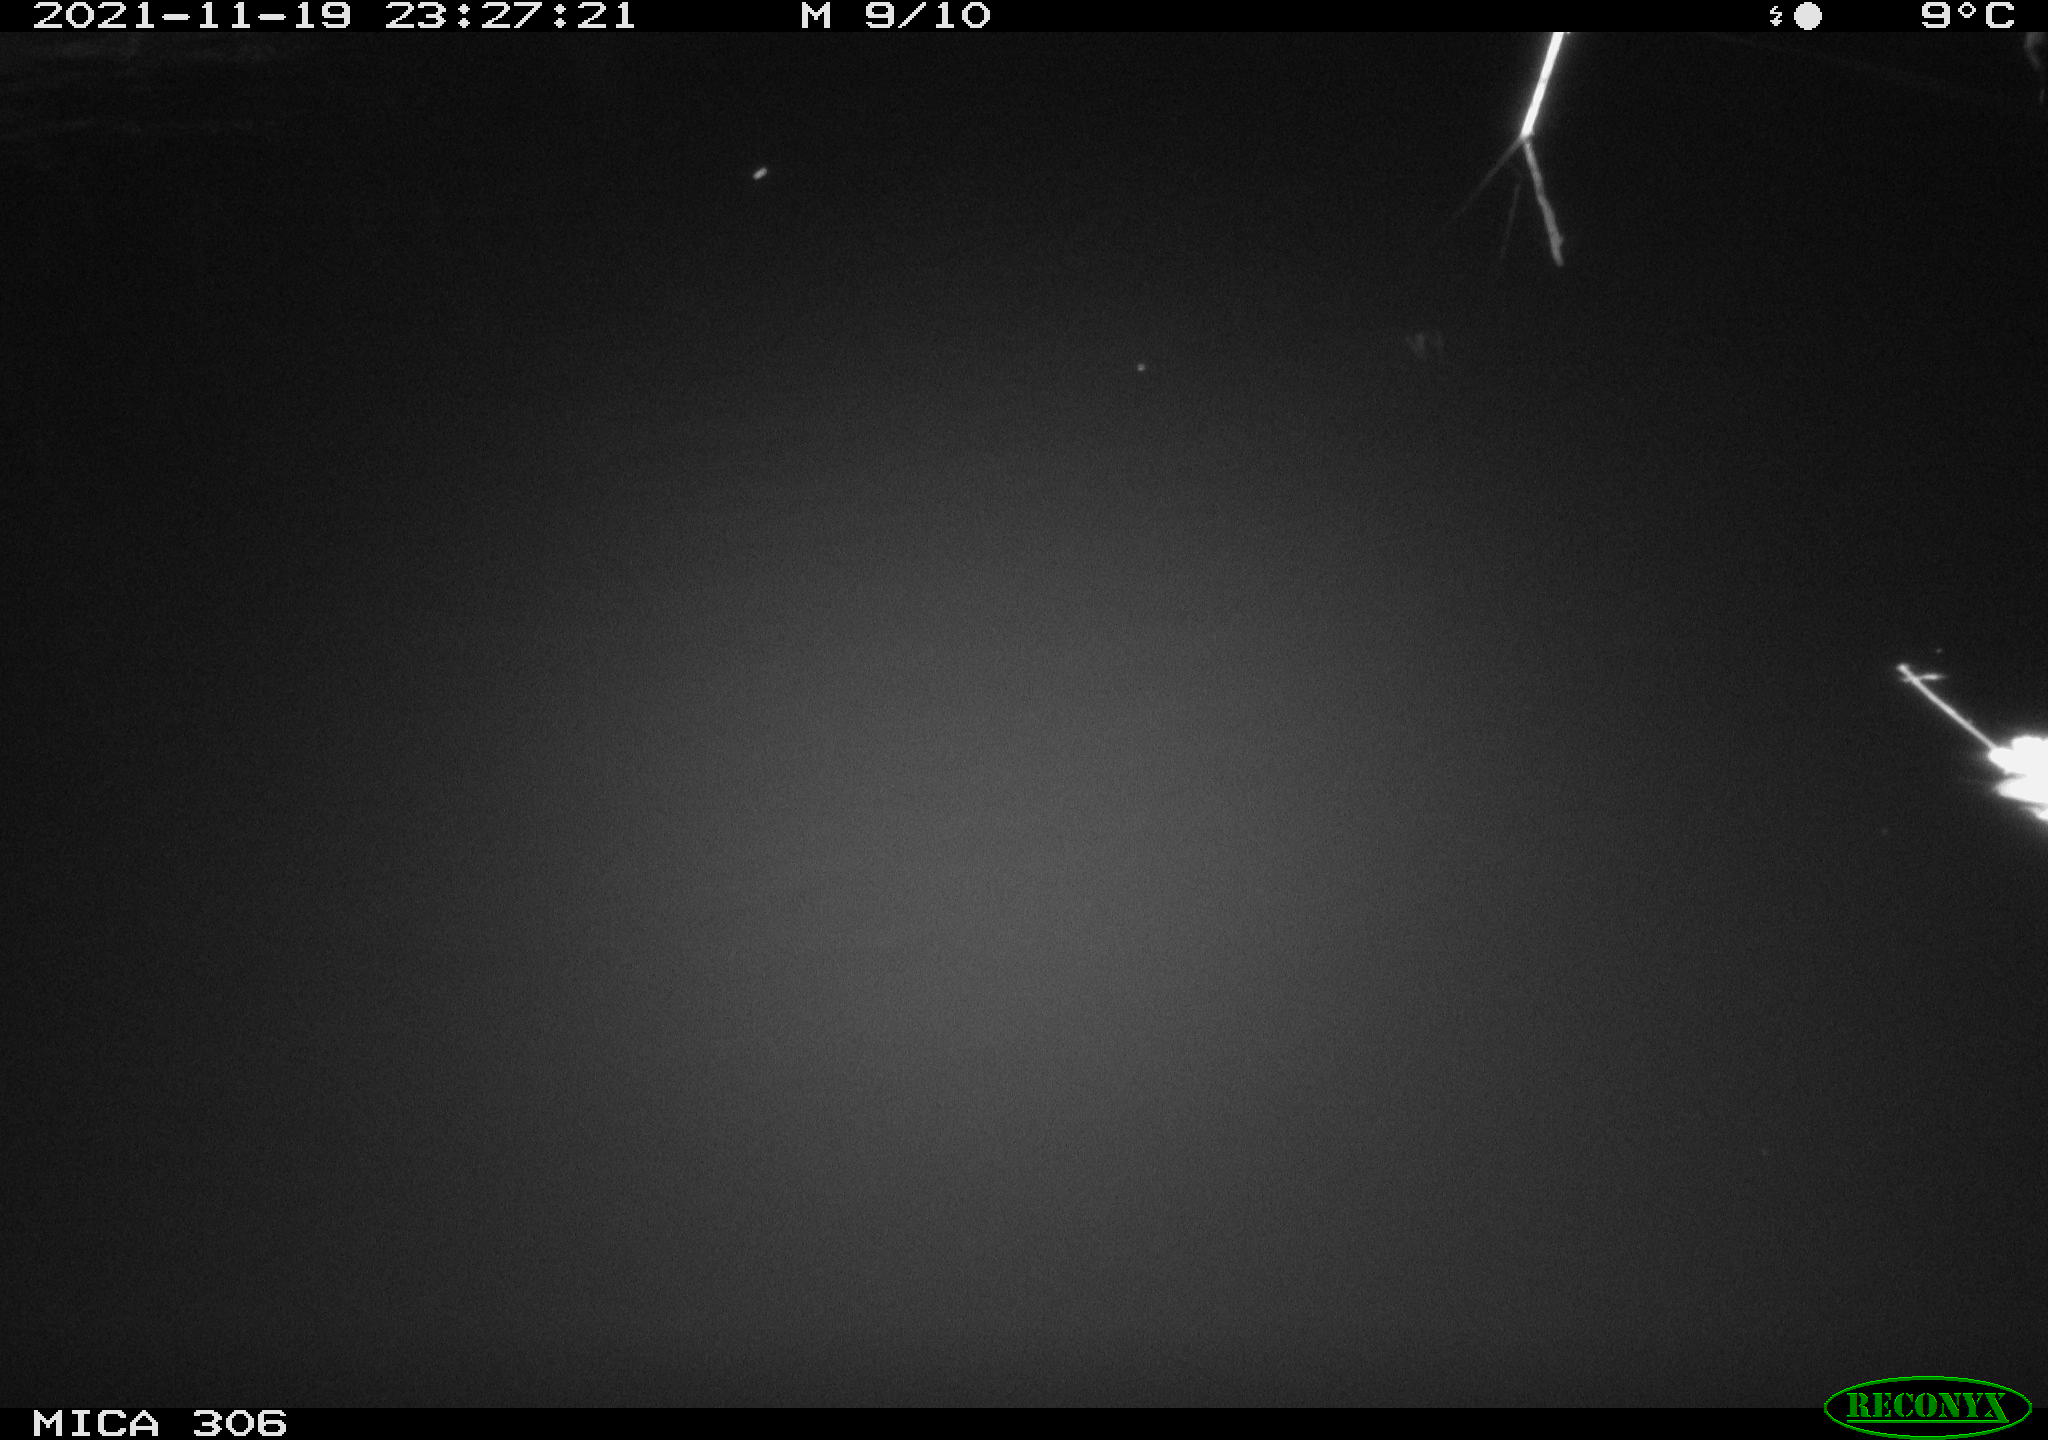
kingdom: Animalia
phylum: Chordata
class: Mammalia
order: Rodentia
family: Muridae
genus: Rattus
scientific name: Rattus norvegicus
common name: Brown rat
